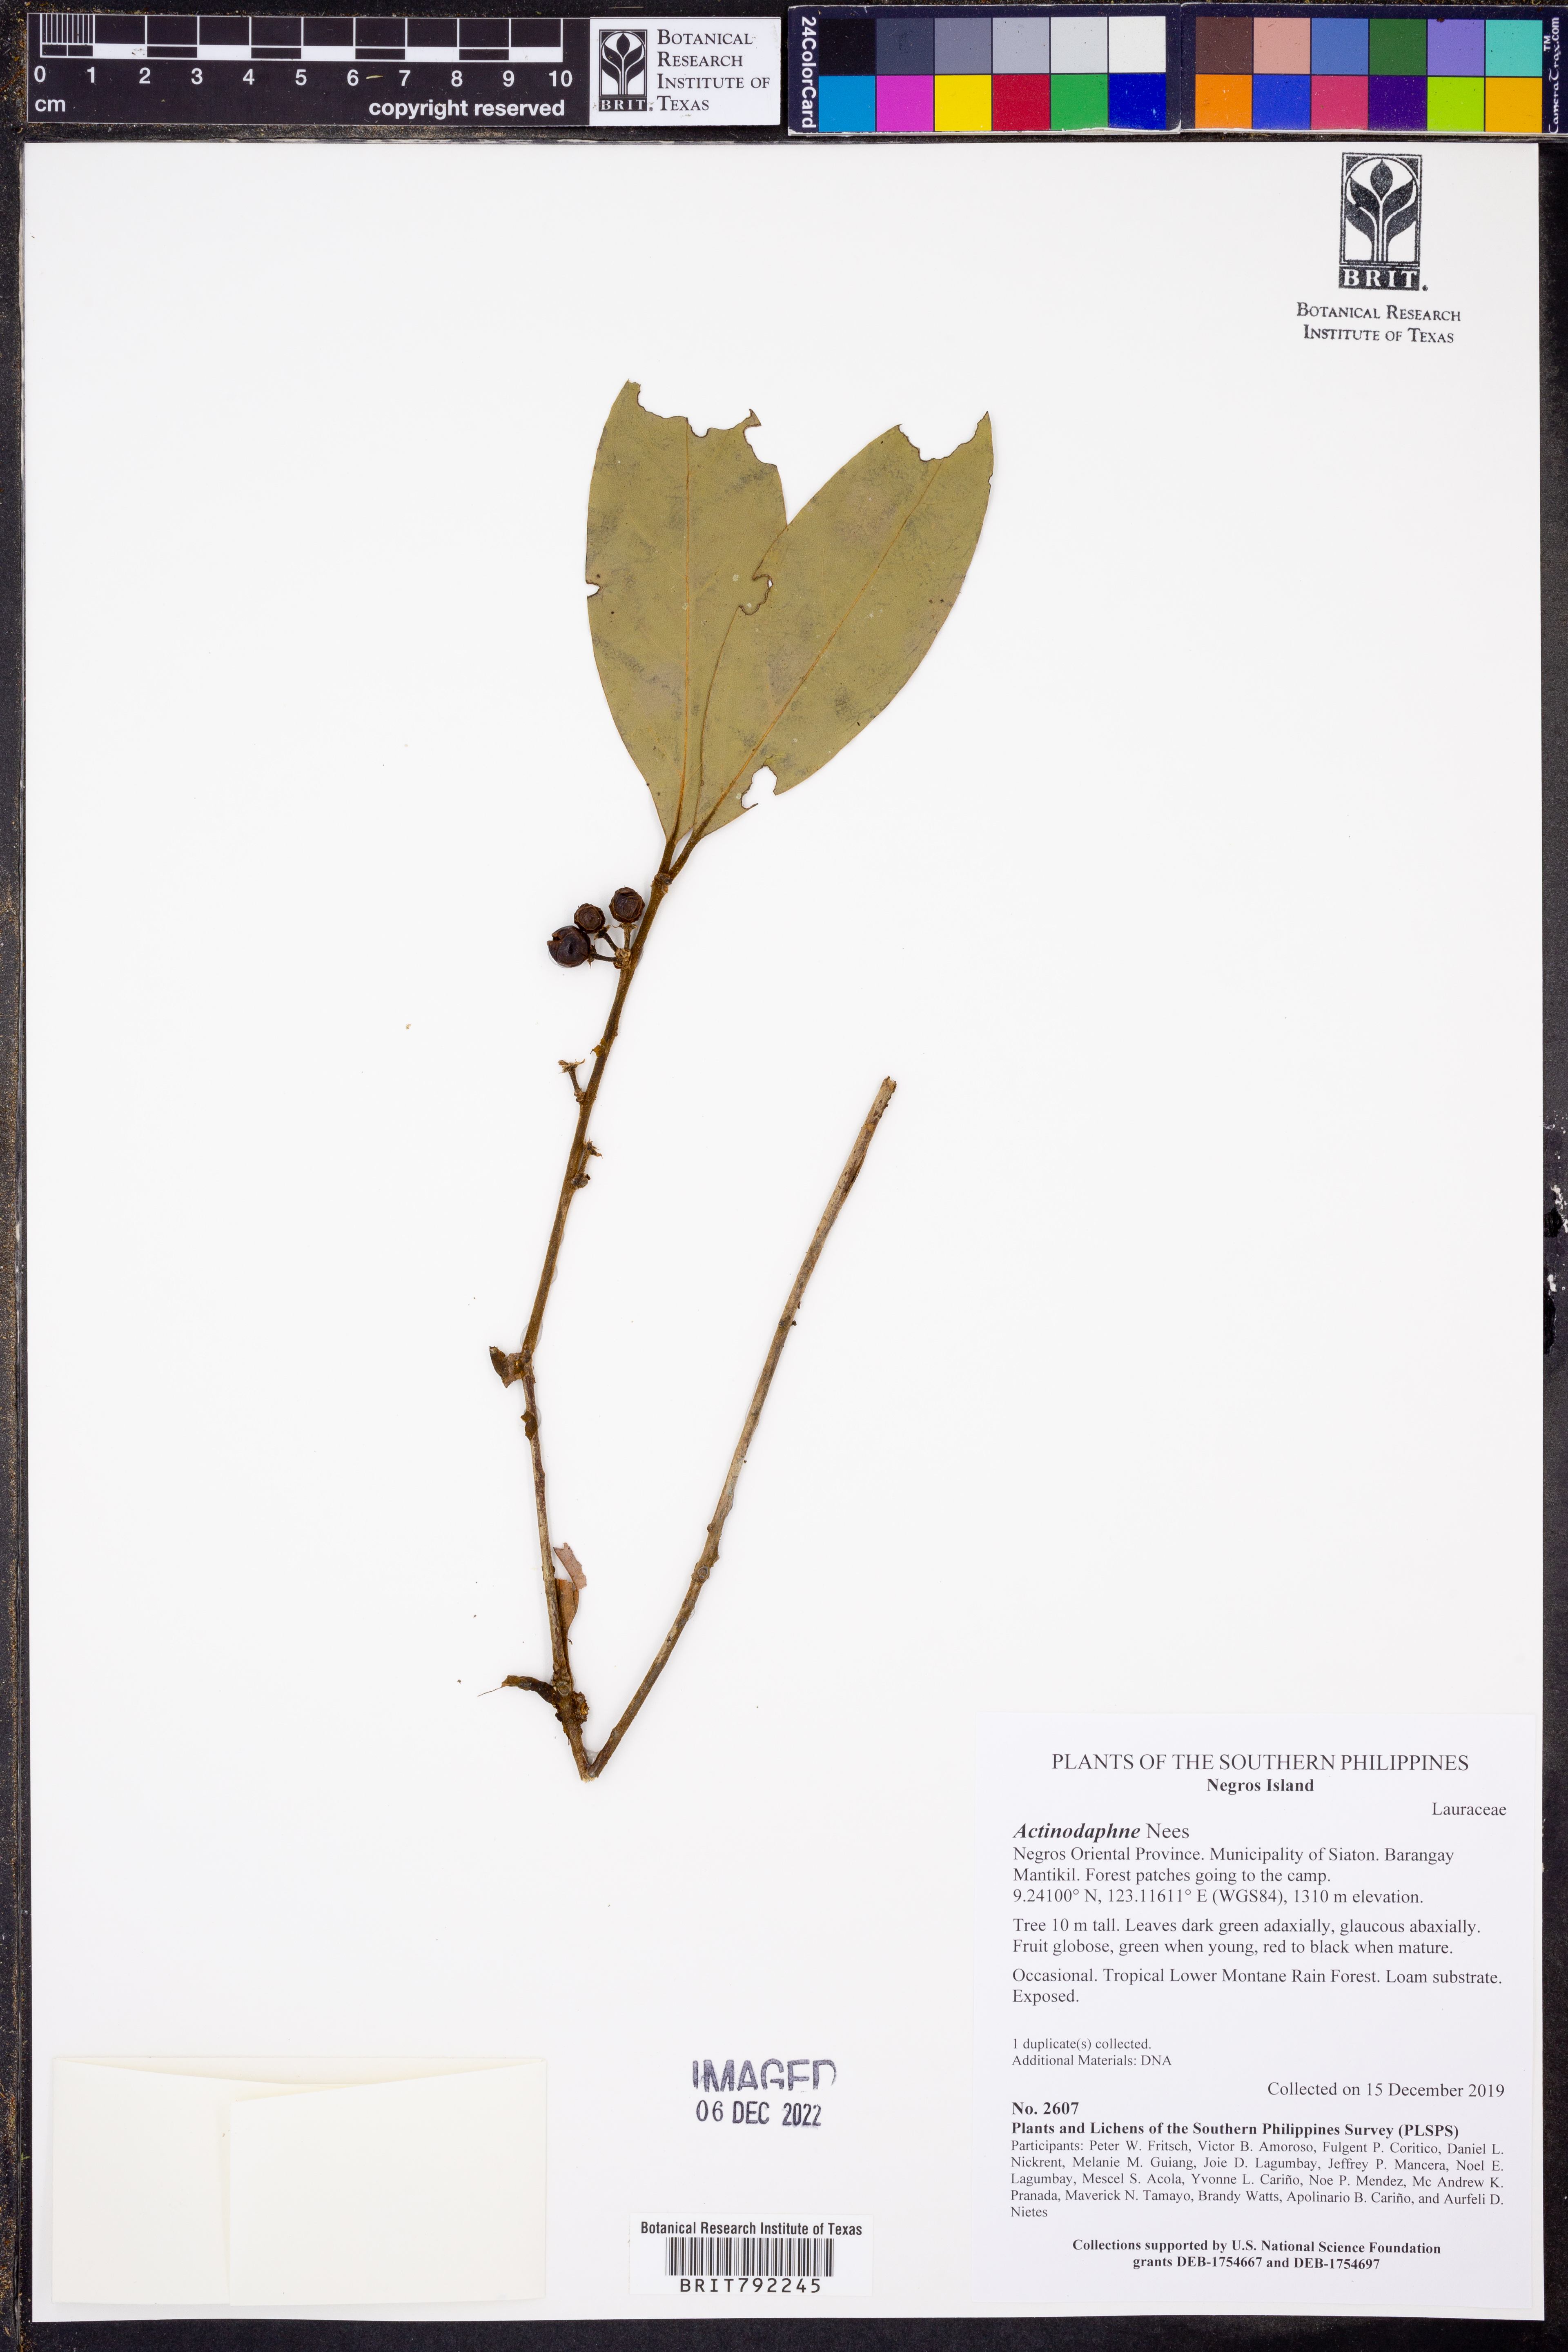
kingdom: Plantae
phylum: Tracheophyta
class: Magnoliopsida
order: Laurales
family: Lauraceae
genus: Actinodaphne
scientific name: Actinodaphne
